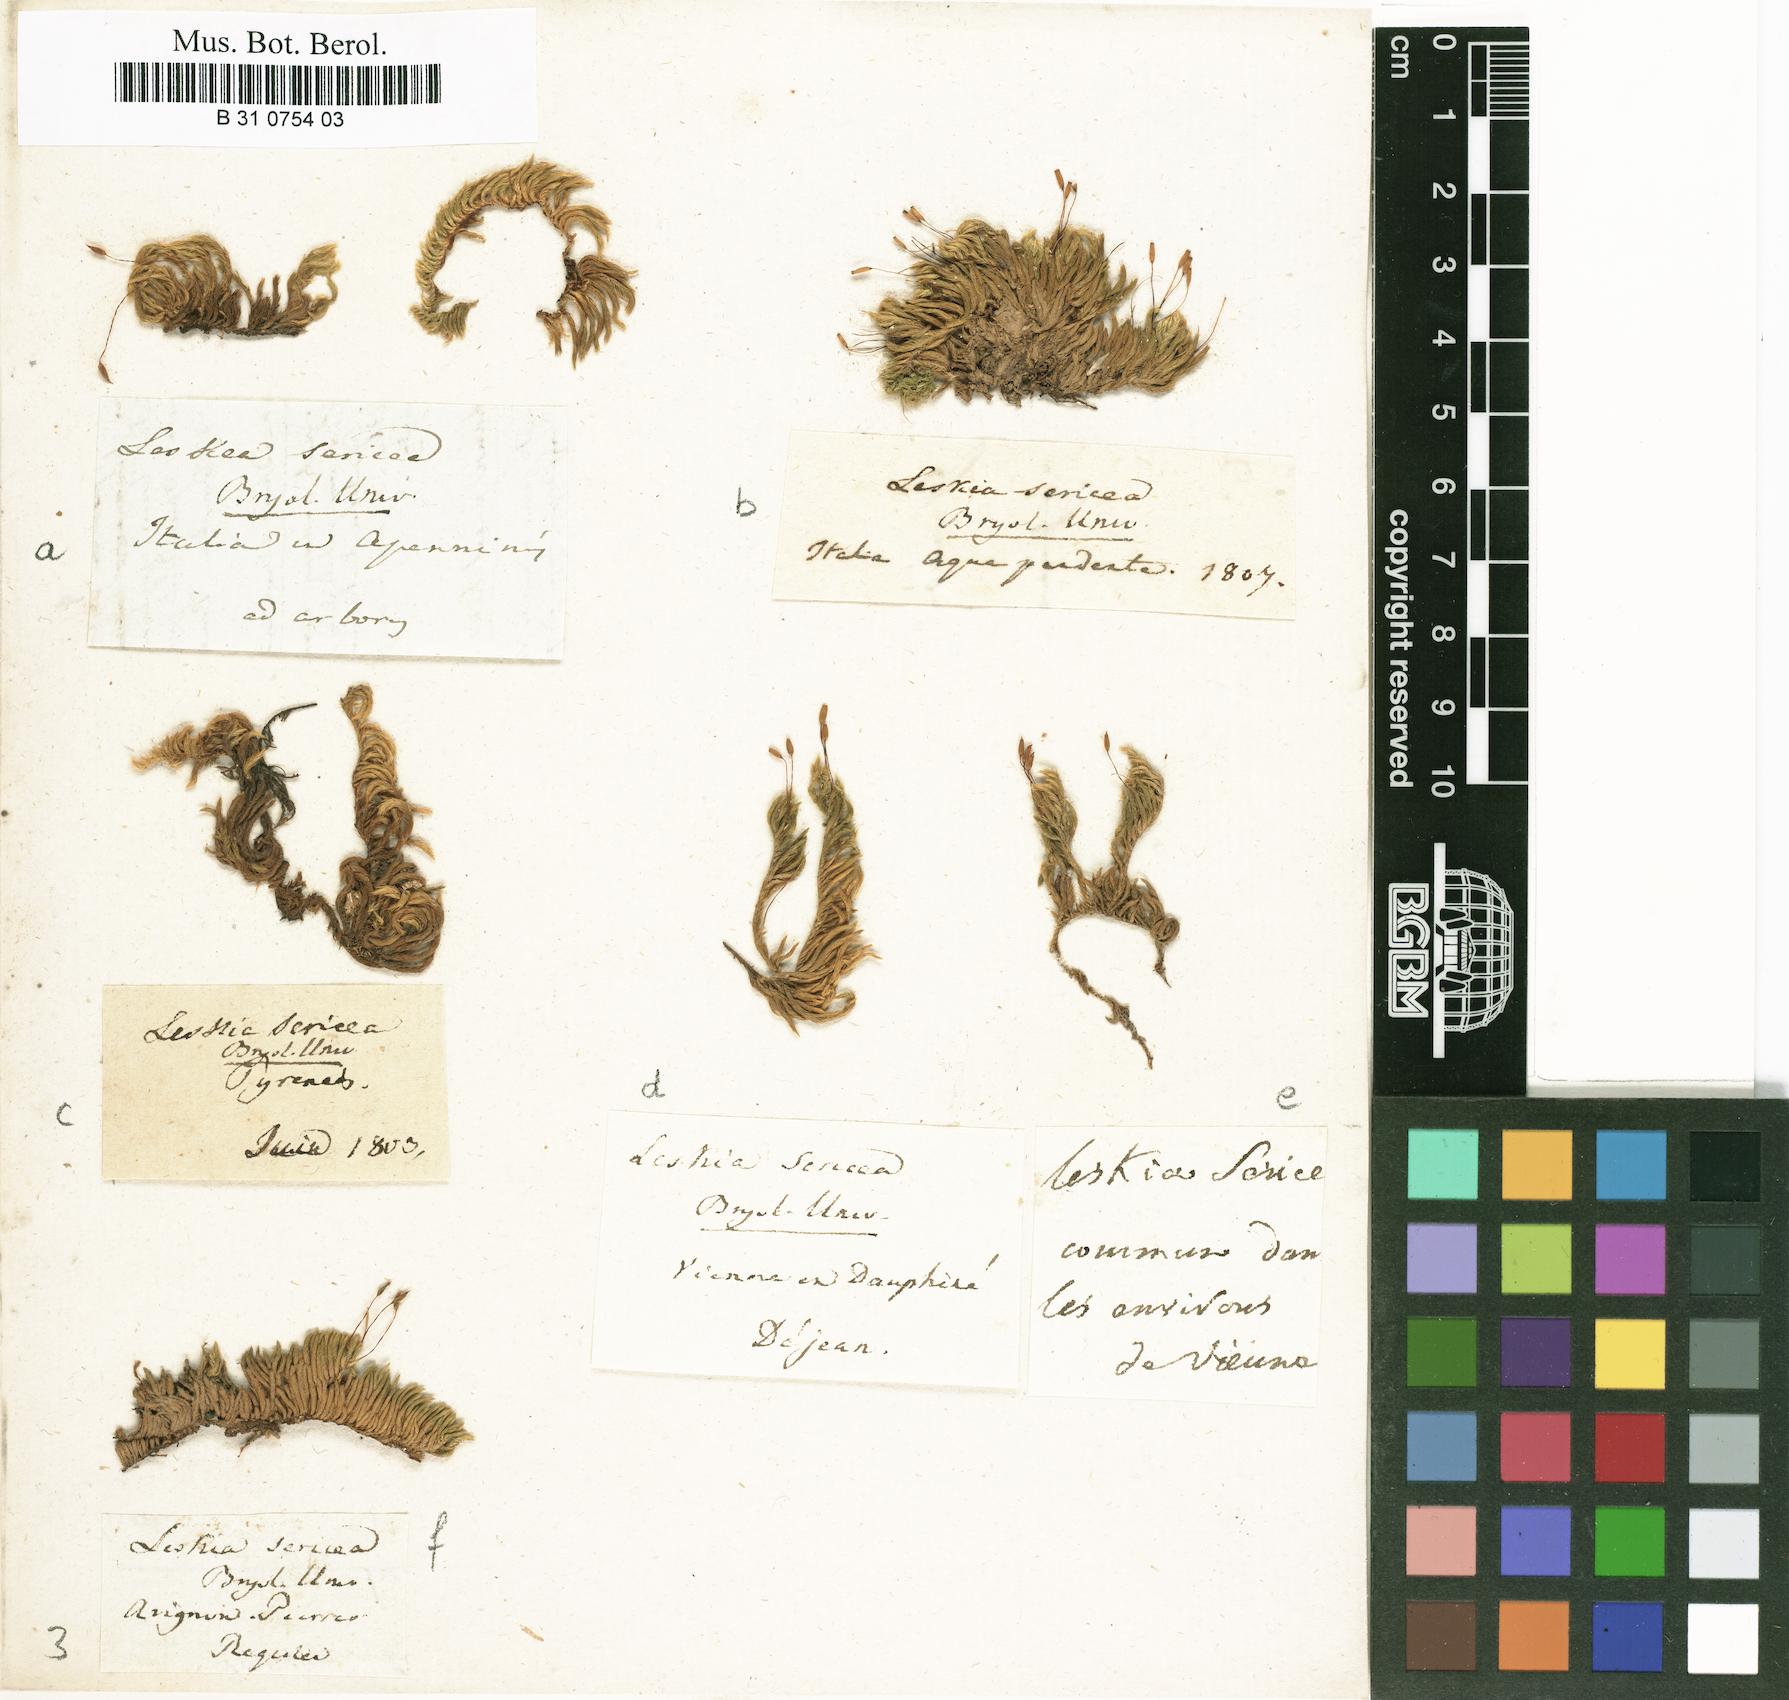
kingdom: Plantae
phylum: Bryophyta
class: Bryopsida
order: Hypnales
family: Brachytheciaceae
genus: Homalothecium
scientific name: Homalothecium sericeum
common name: Silky wall feather-moss
